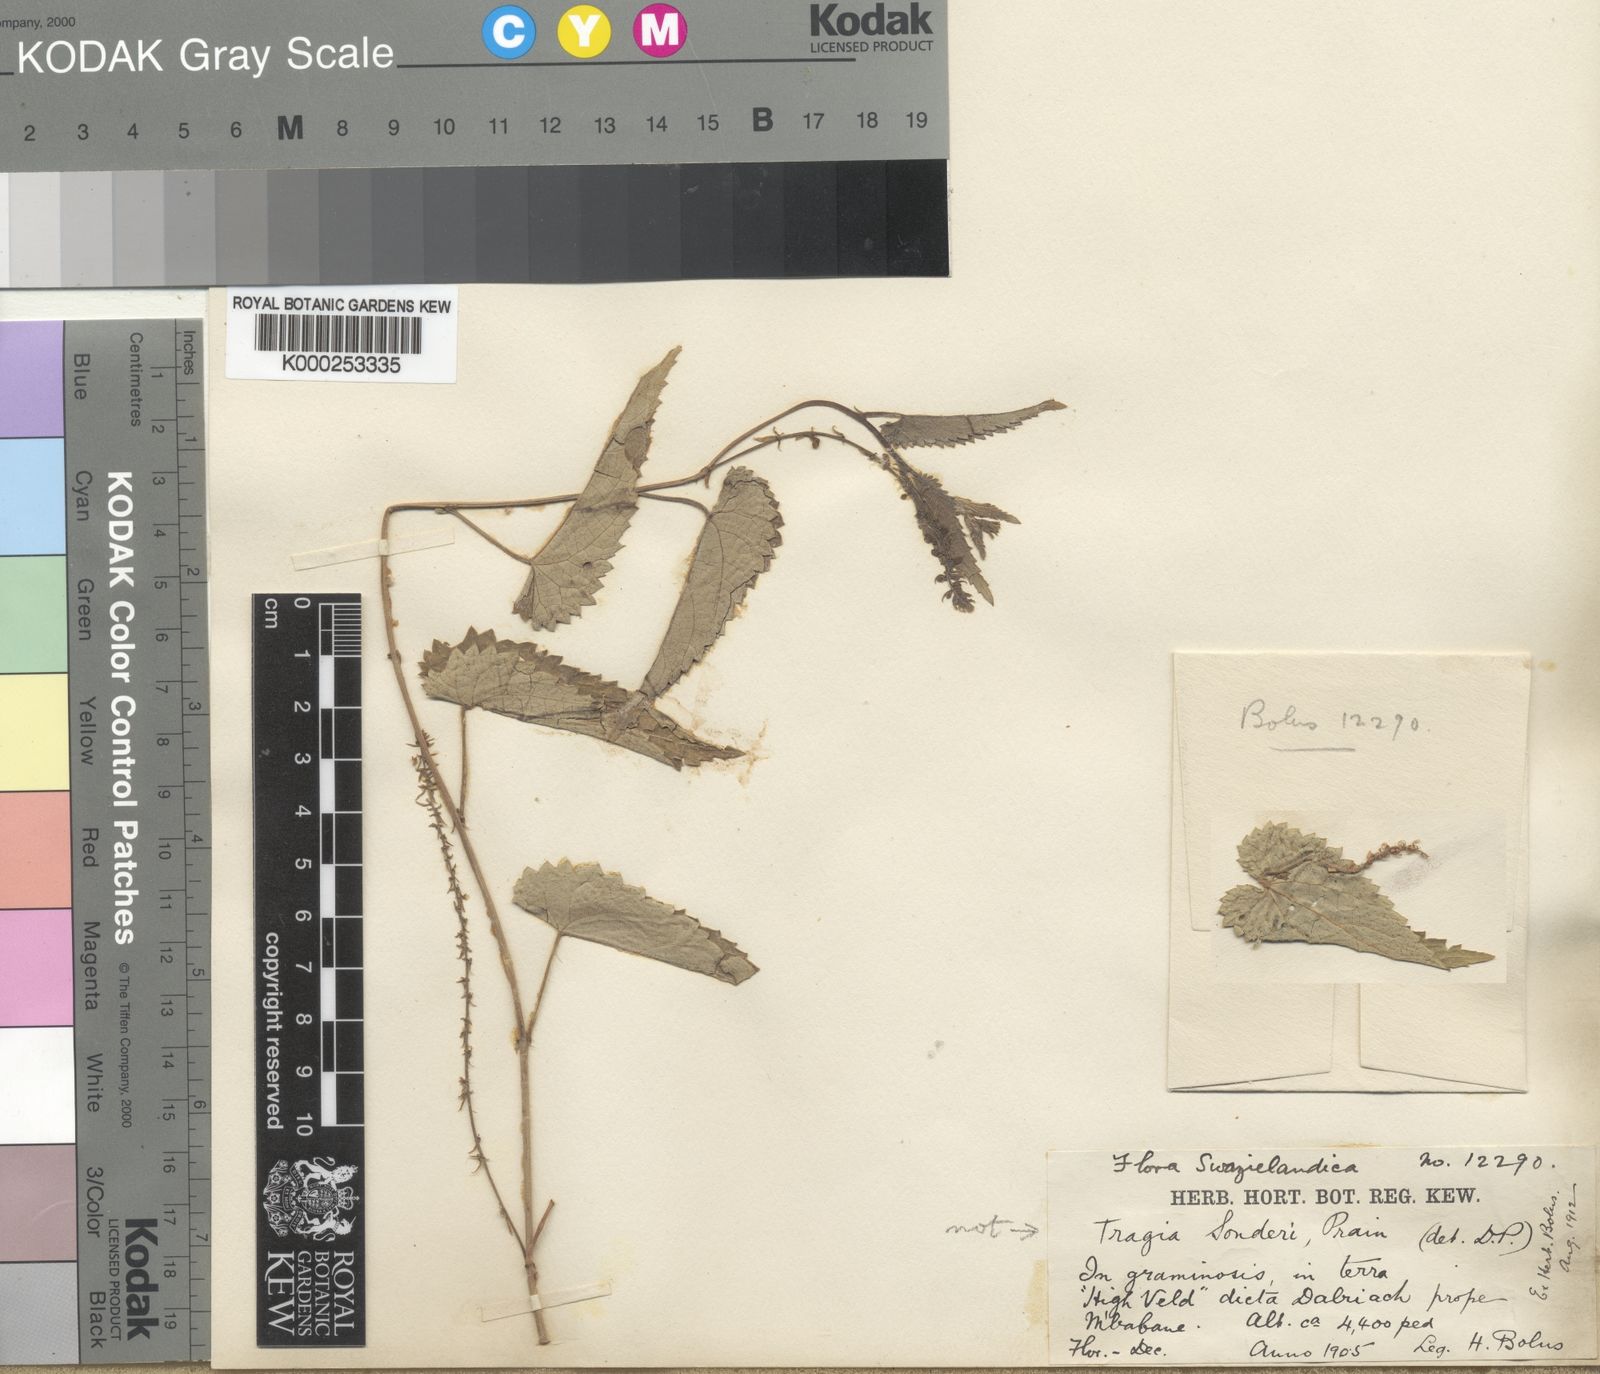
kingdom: Plantae
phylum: Tracheophyta
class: Magnoliopsida
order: Malpighiales
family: Euphorbiaceae
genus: Tragia
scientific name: Tragia prionoides
